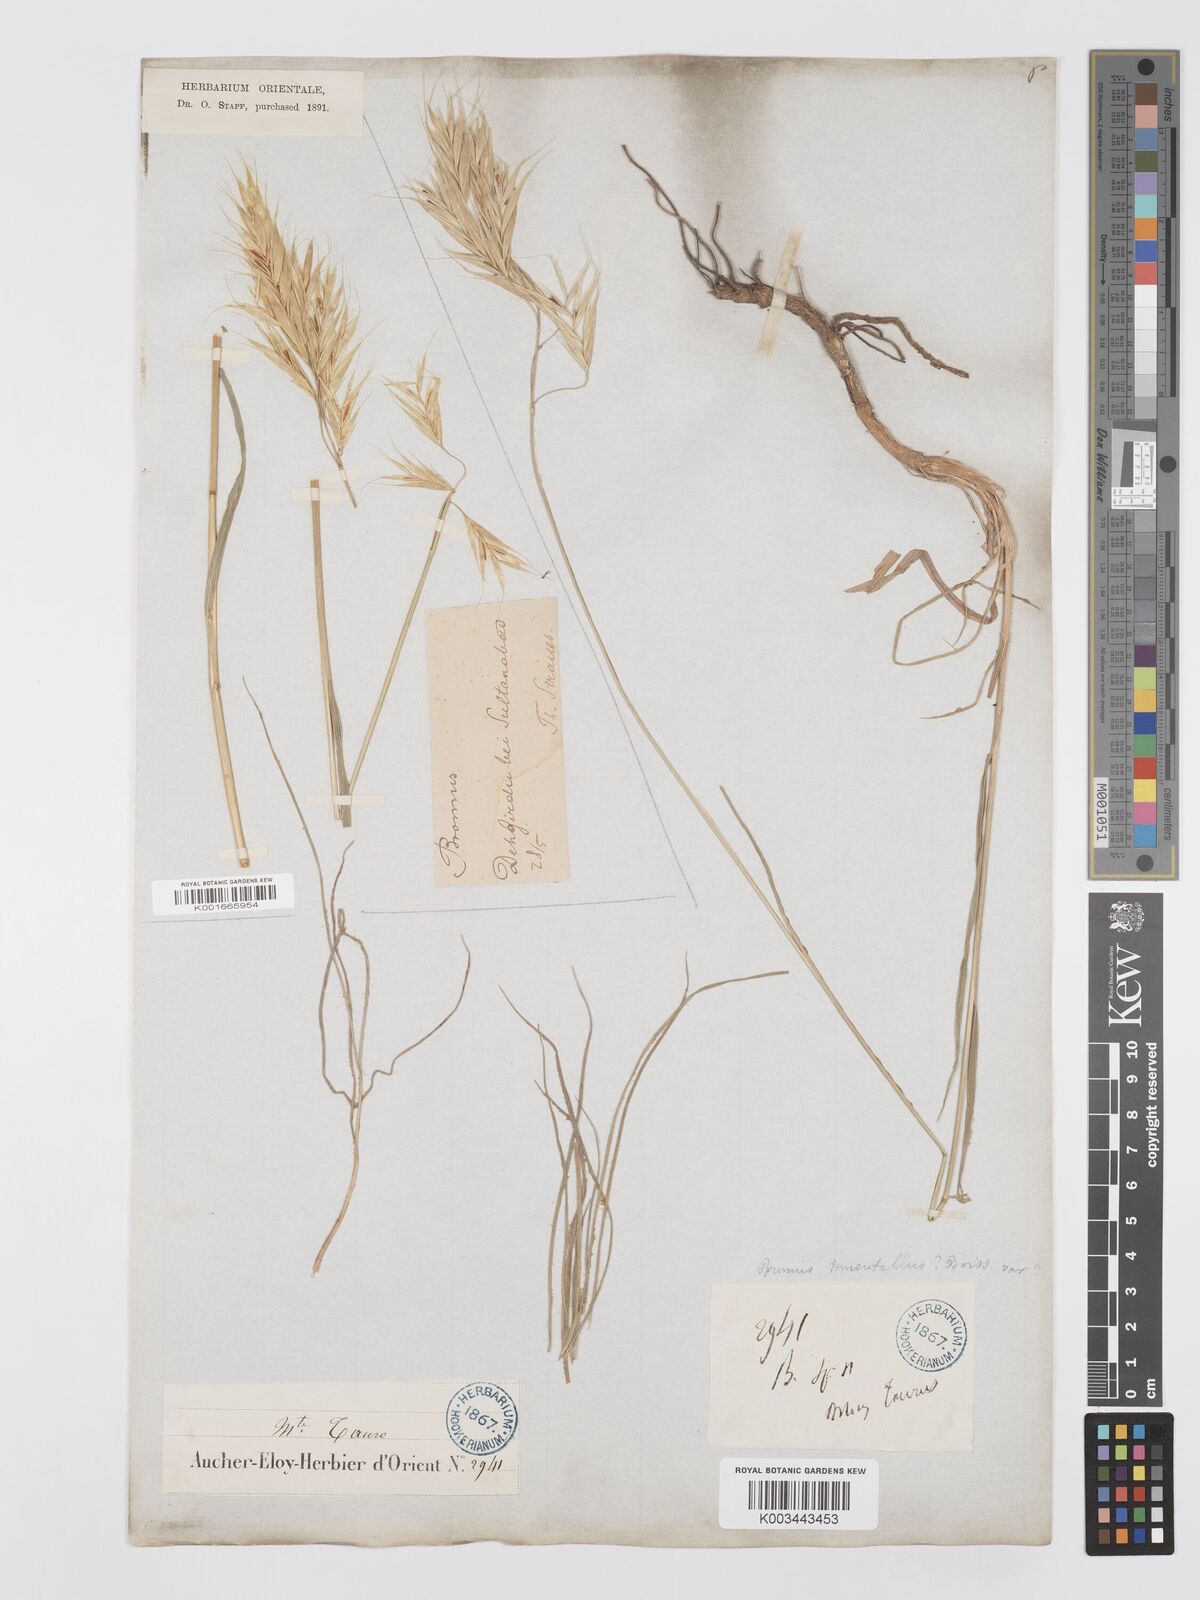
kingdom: Plantae
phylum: Tracheophyta
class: Liliopsida
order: Poales
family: Poaceae
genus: Bromus
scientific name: Bromus tomentellus
